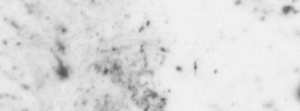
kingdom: Animalia
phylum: Chordata
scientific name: Chordata
